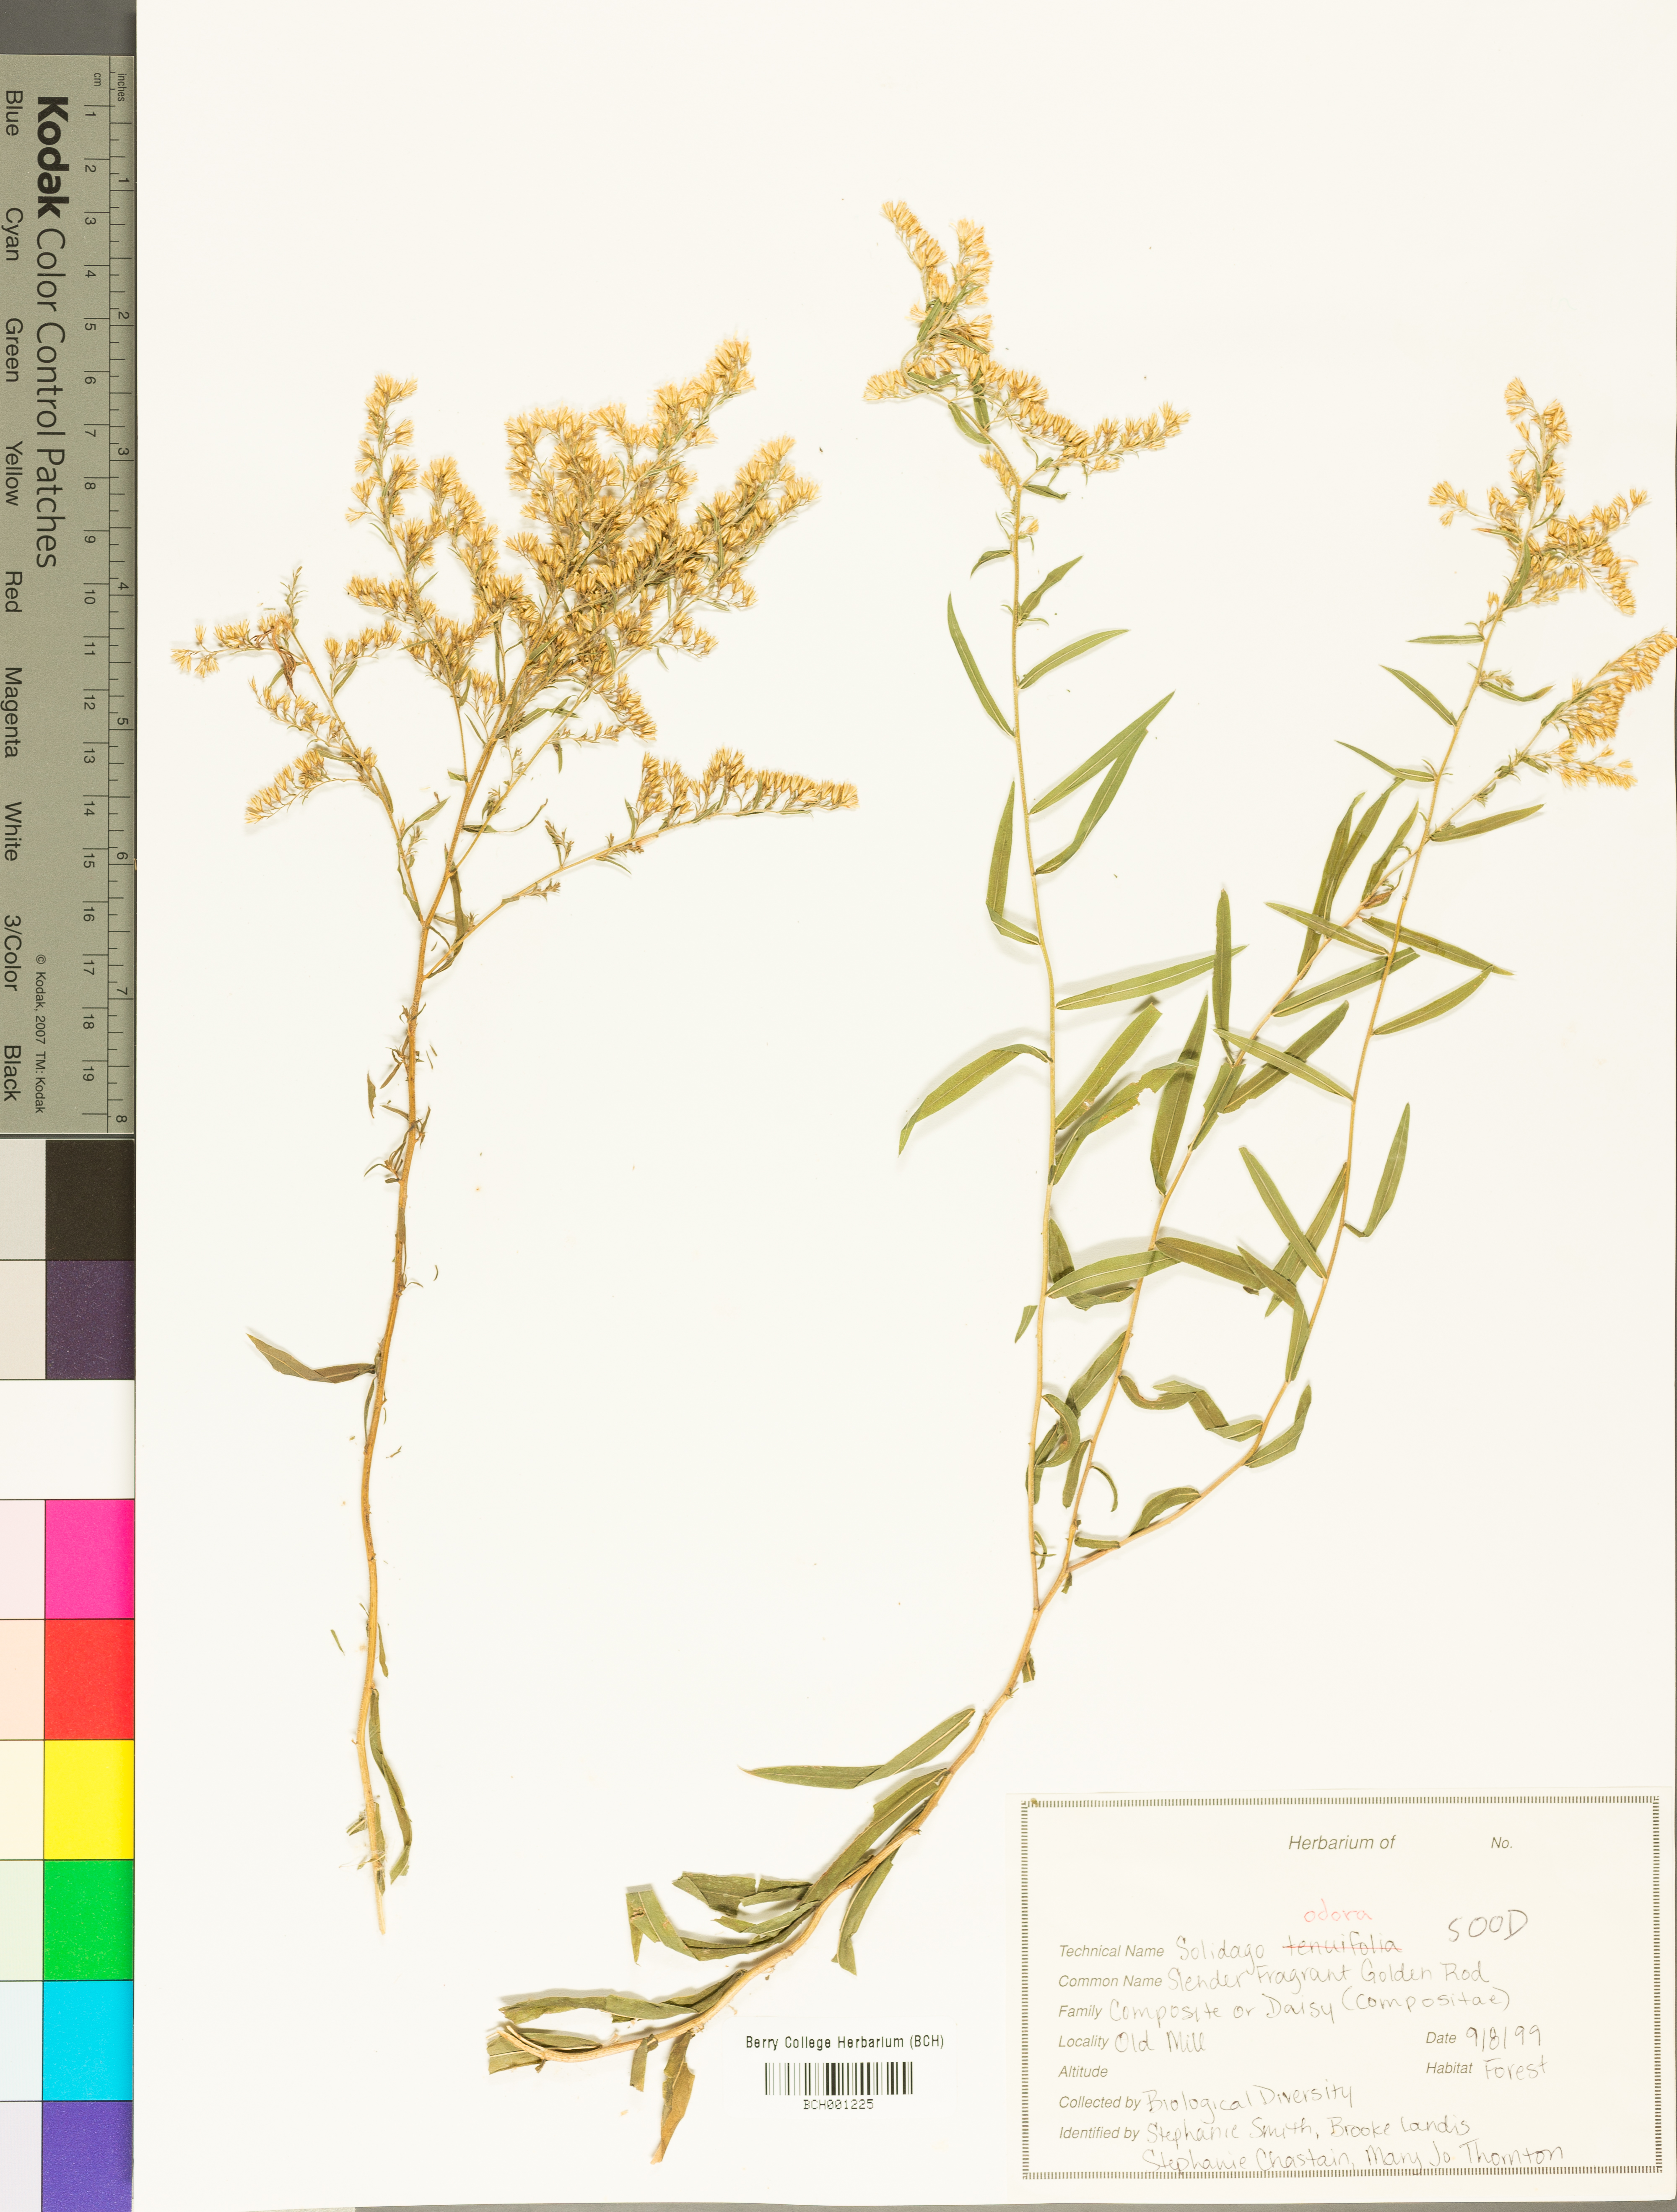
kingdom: Plantae
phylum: Tracheophyta
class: Magnoliopsida
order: Asterales
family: Asteraceae
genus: Solidago
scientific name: Solidago odora
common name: Anise-scented goldenrod
